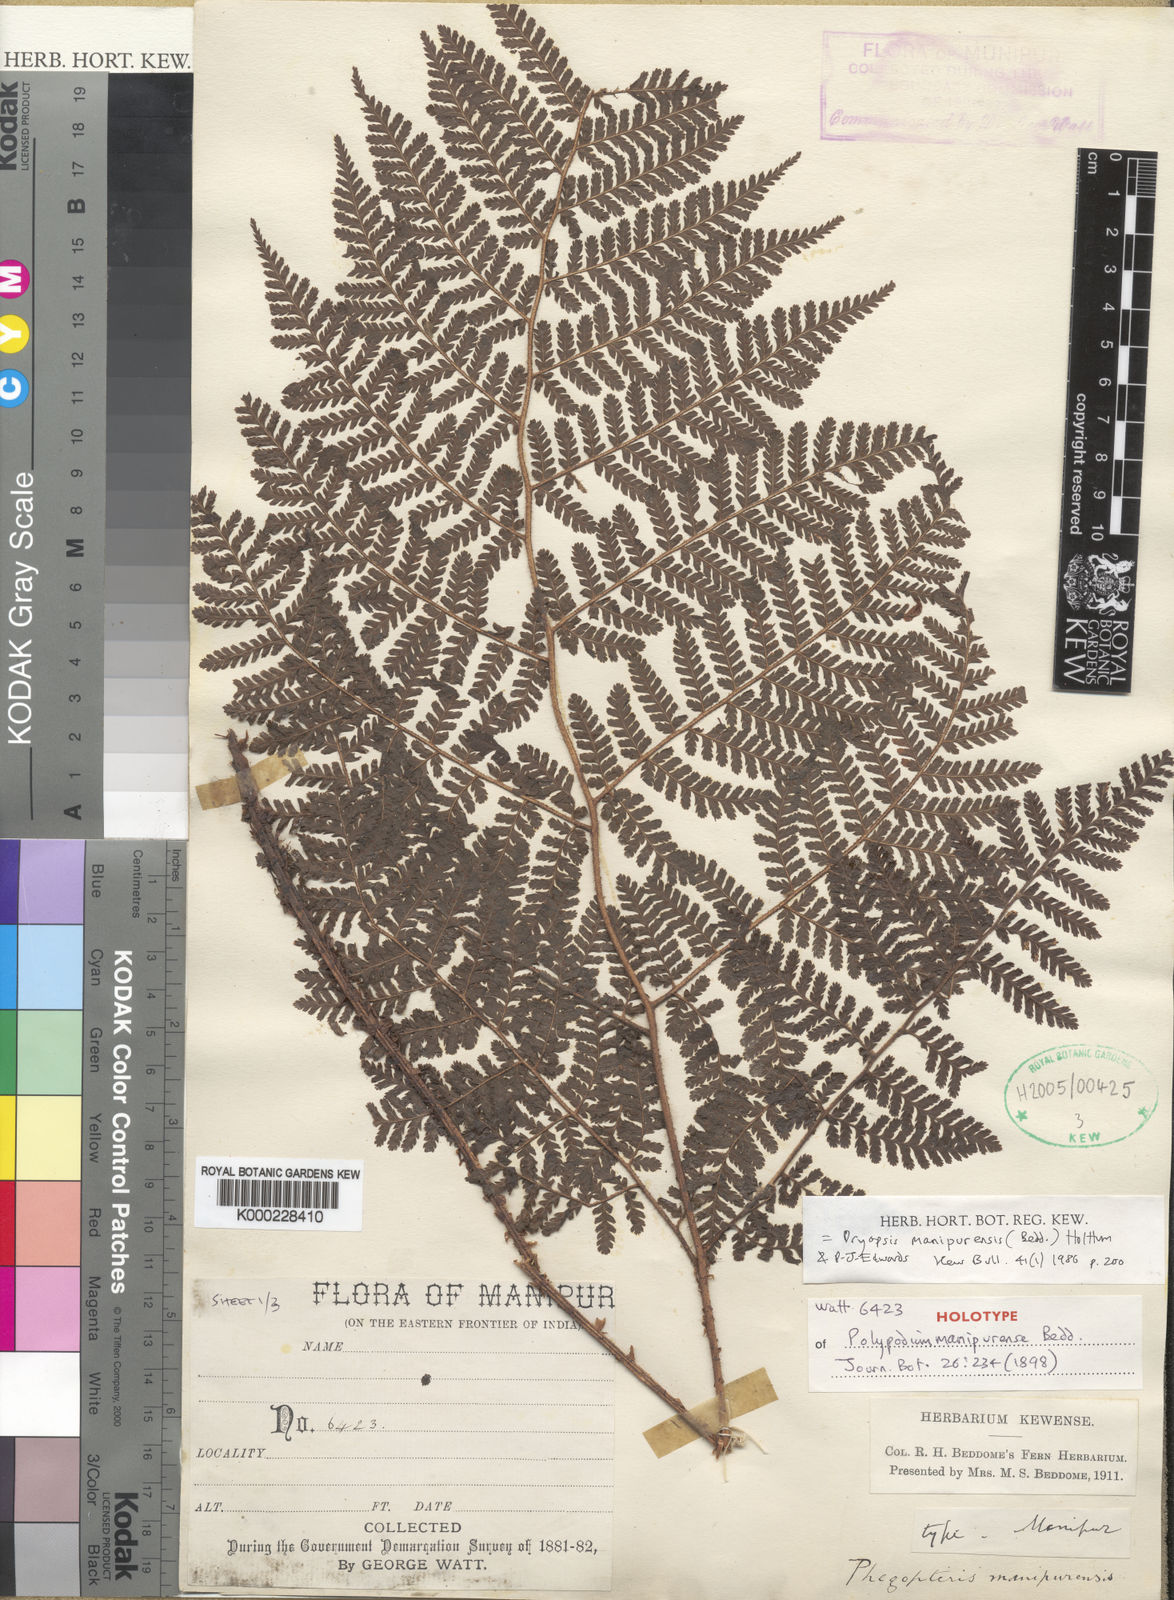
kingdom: Plantae
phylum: Tracheophyta
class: Polypodiopsida
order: Polypodiales
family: Dryopteridaceae
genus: Dryopteris
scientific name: Dryopteris manipurensis
